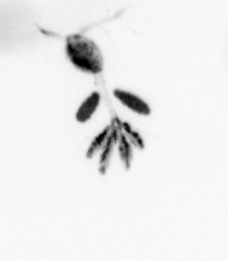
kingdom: Animalia
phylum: Arthropoda
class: Copepoda
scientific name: Copepoda
